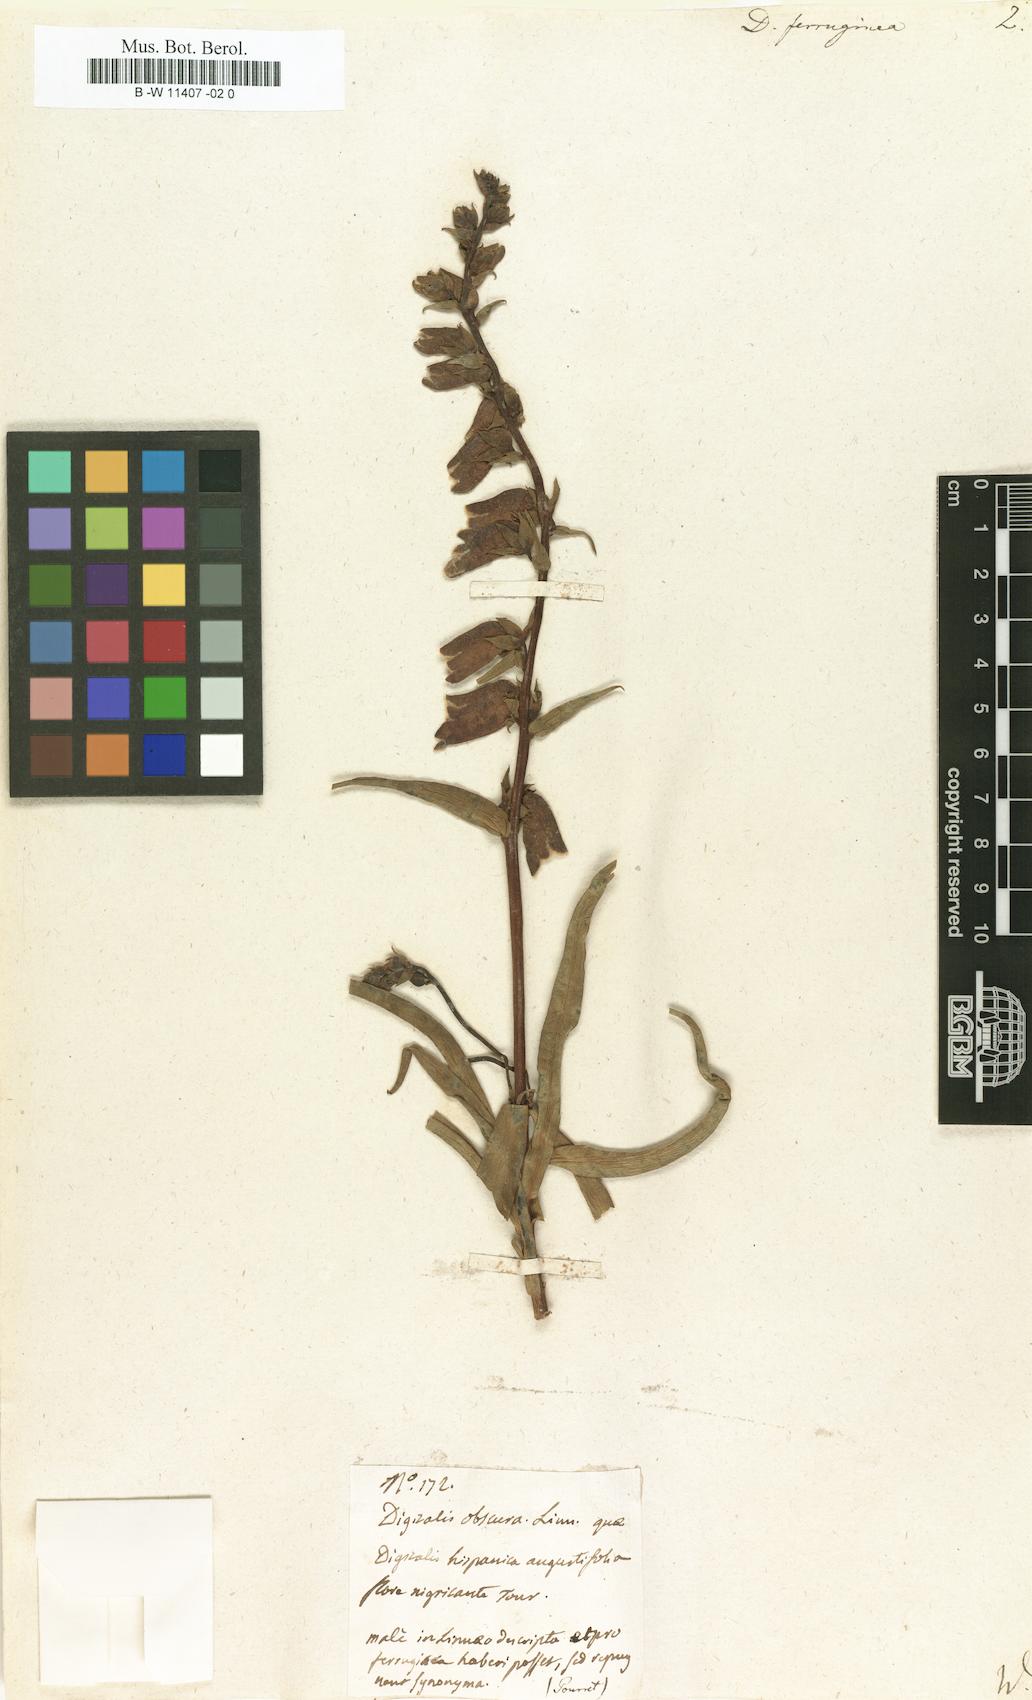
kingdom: Plantae
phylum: Tracheophyta
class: Magnoliopsida
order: Lamiales
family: Plantaginaceae
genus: Digitalis
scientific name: Digitalis ferruginea
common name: Rusty foxglove
